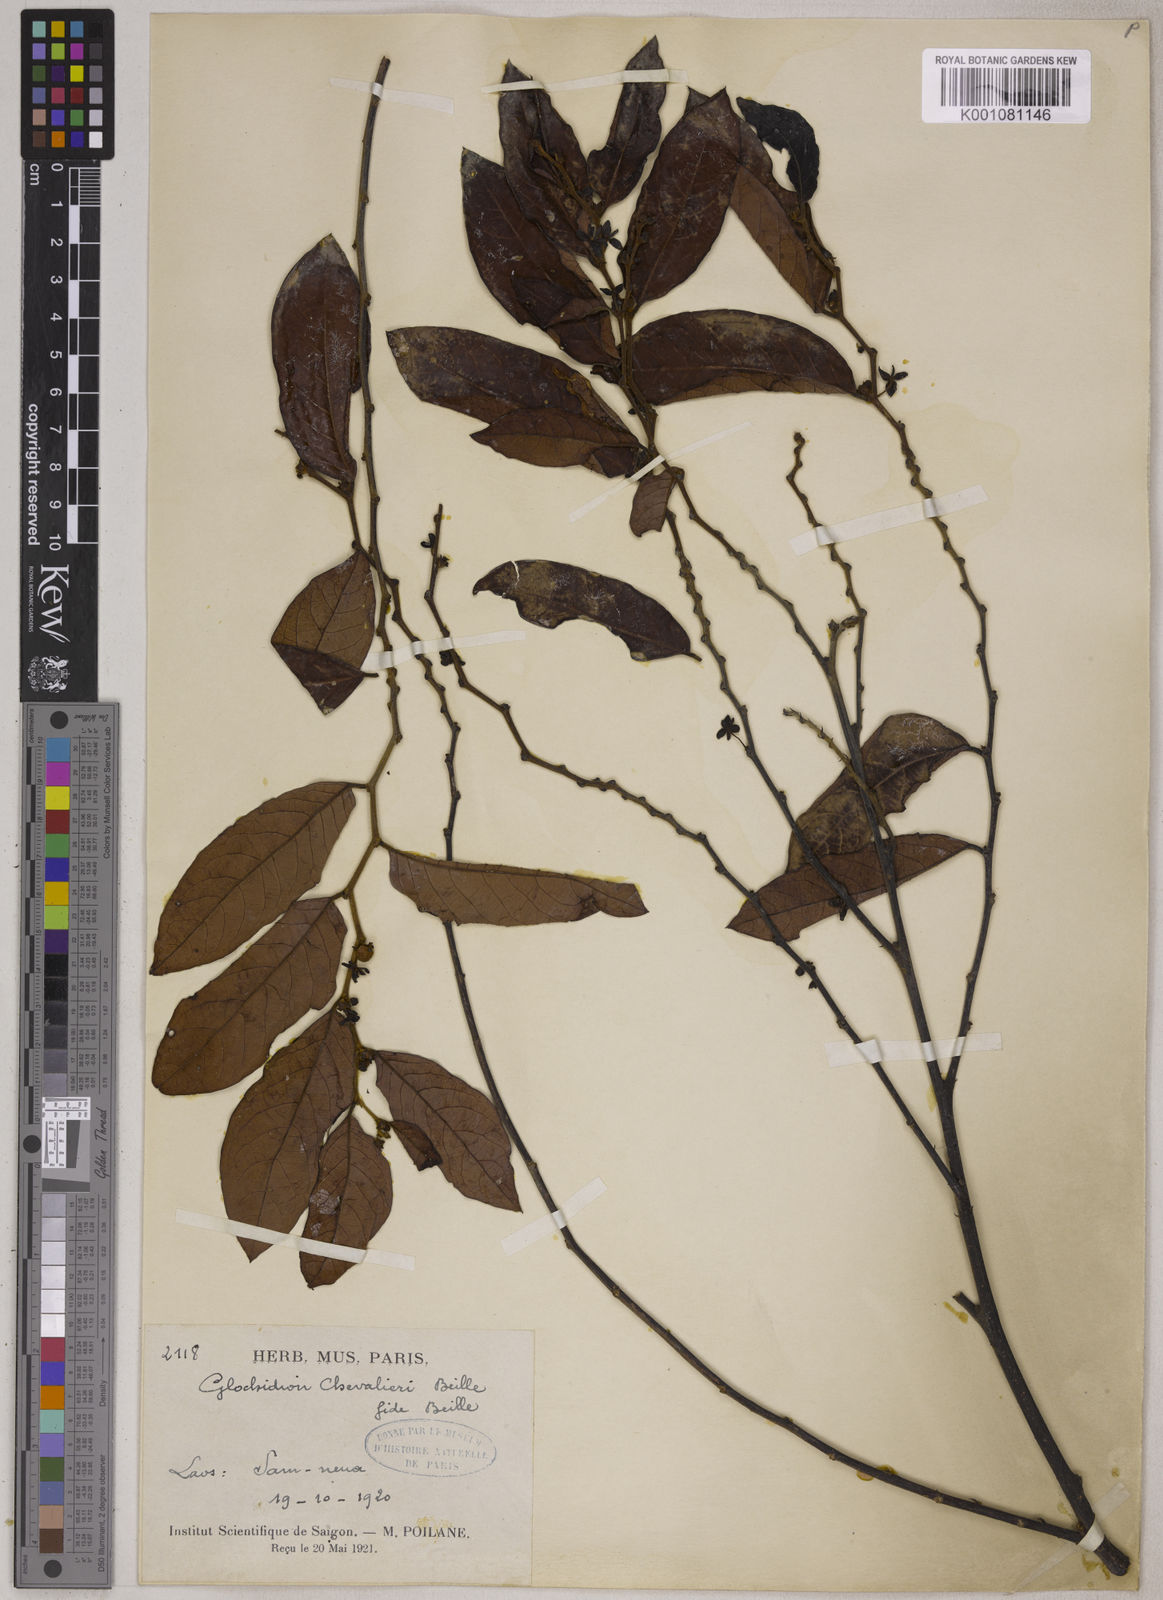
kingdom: Plantae
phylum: Tracheophyta
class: Magnoliopsida
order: Malpighiales
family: Phyllanthaceae
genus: Glochidion
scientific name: Glochidion chevalieri
